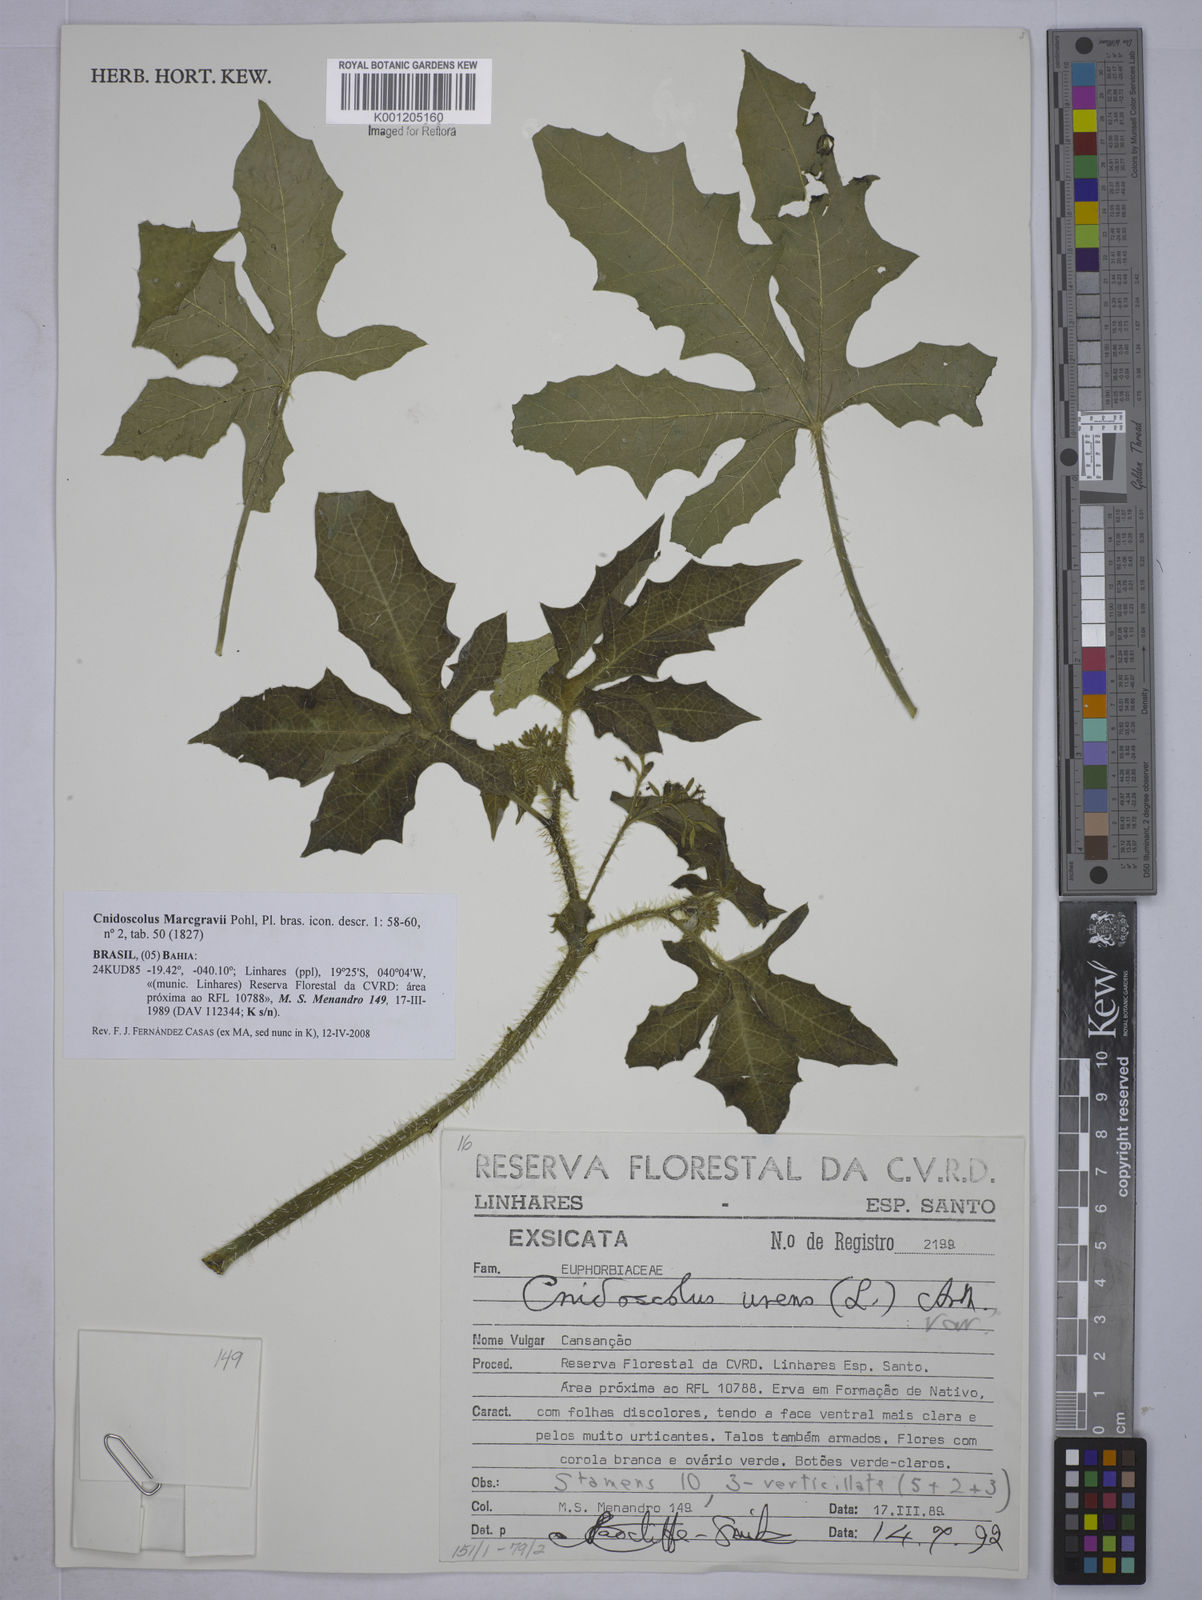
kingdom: Plantae
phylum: Tracheophyta
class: Magnoliopsida
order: Malpighiales
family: Euphorbiaceae
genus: Cnidoscolus
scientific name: Cnidoscolus urens
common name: Bull-nettle
